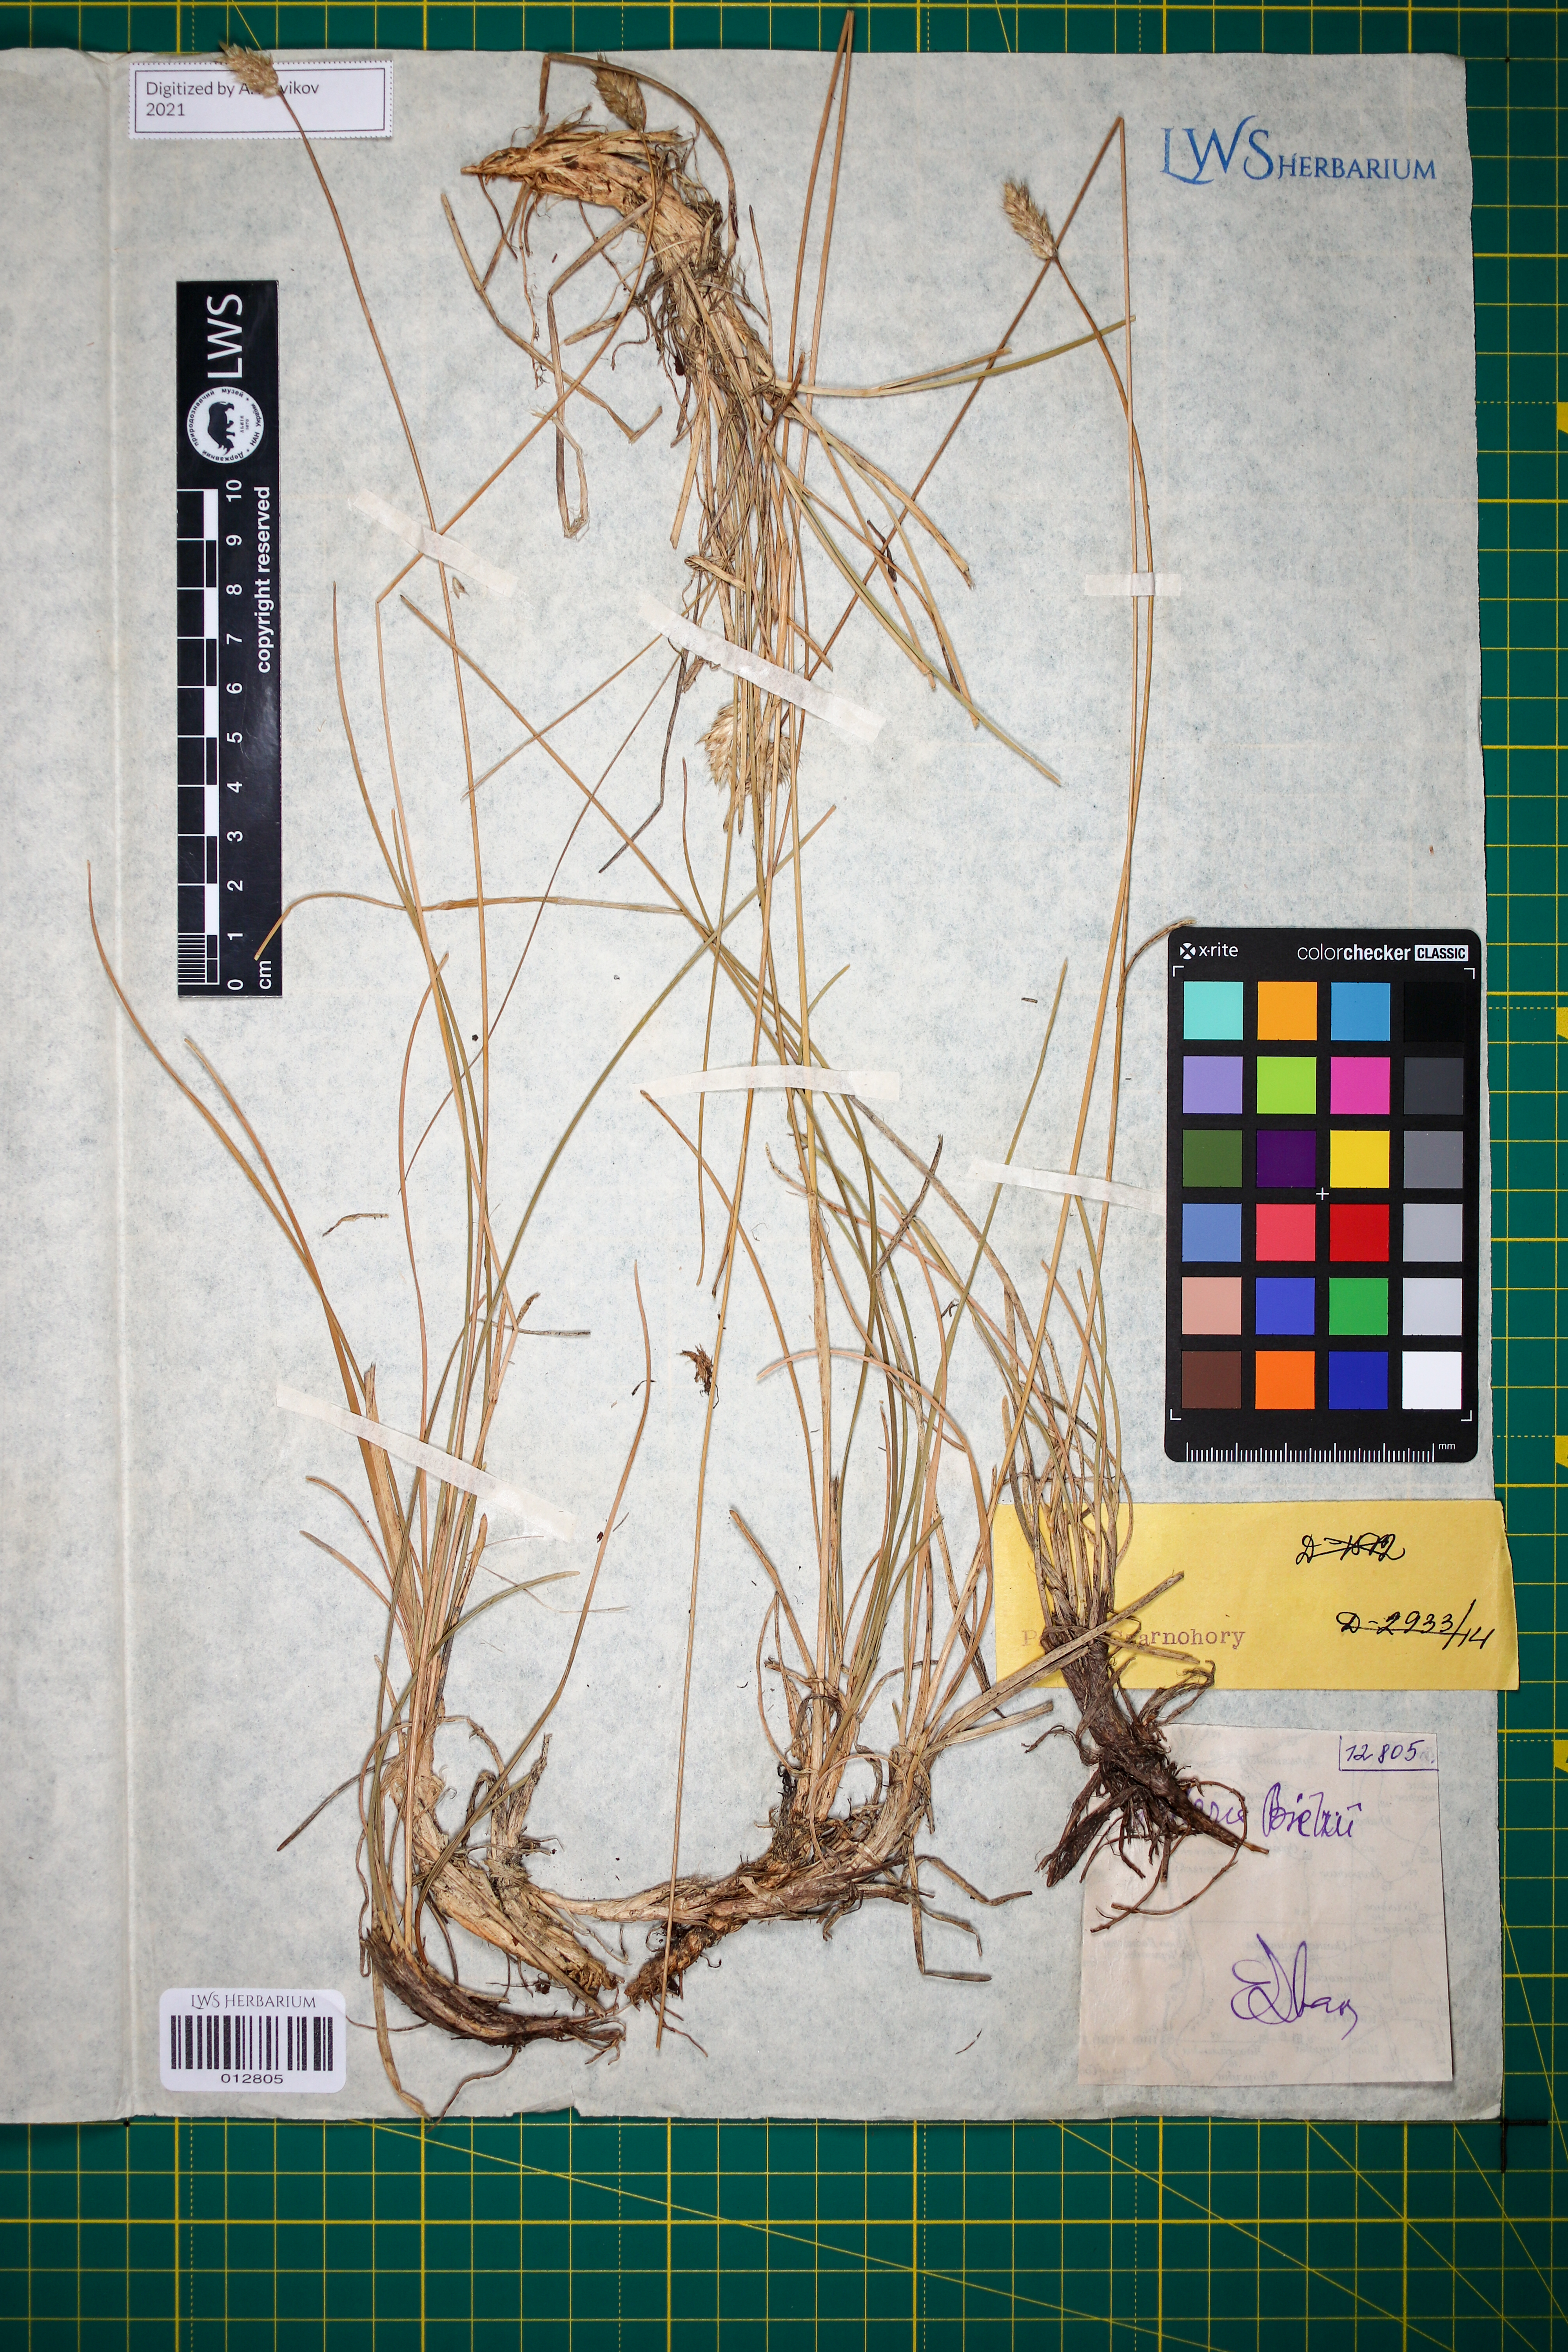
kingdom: Plantae
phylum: Tracheophyta
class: Liliopsida
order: Poales
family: Poaceae
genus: Sesleria
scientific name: Sesleria bielzii
